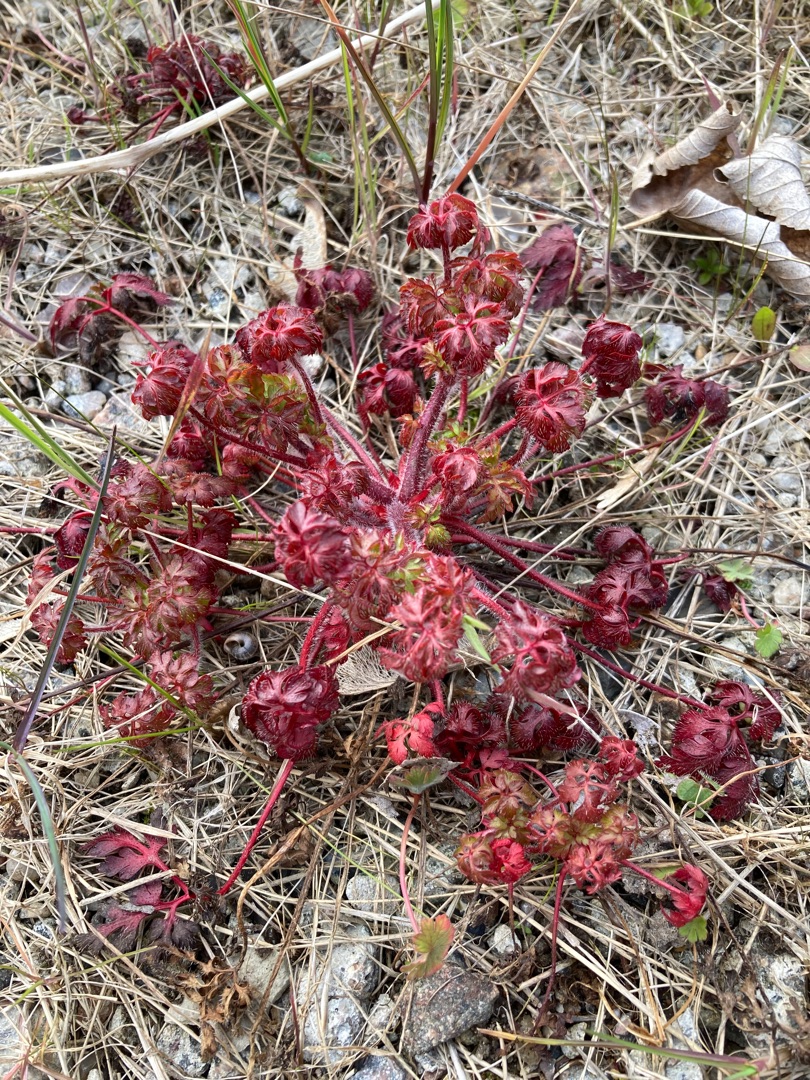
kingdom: Plantae
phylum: Tracheophyta
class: Magnoliopsida
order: Geraniales
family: Geraniaceae
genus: Geranium
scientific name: Geranium robertianum
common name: Stinkende storkenæb
